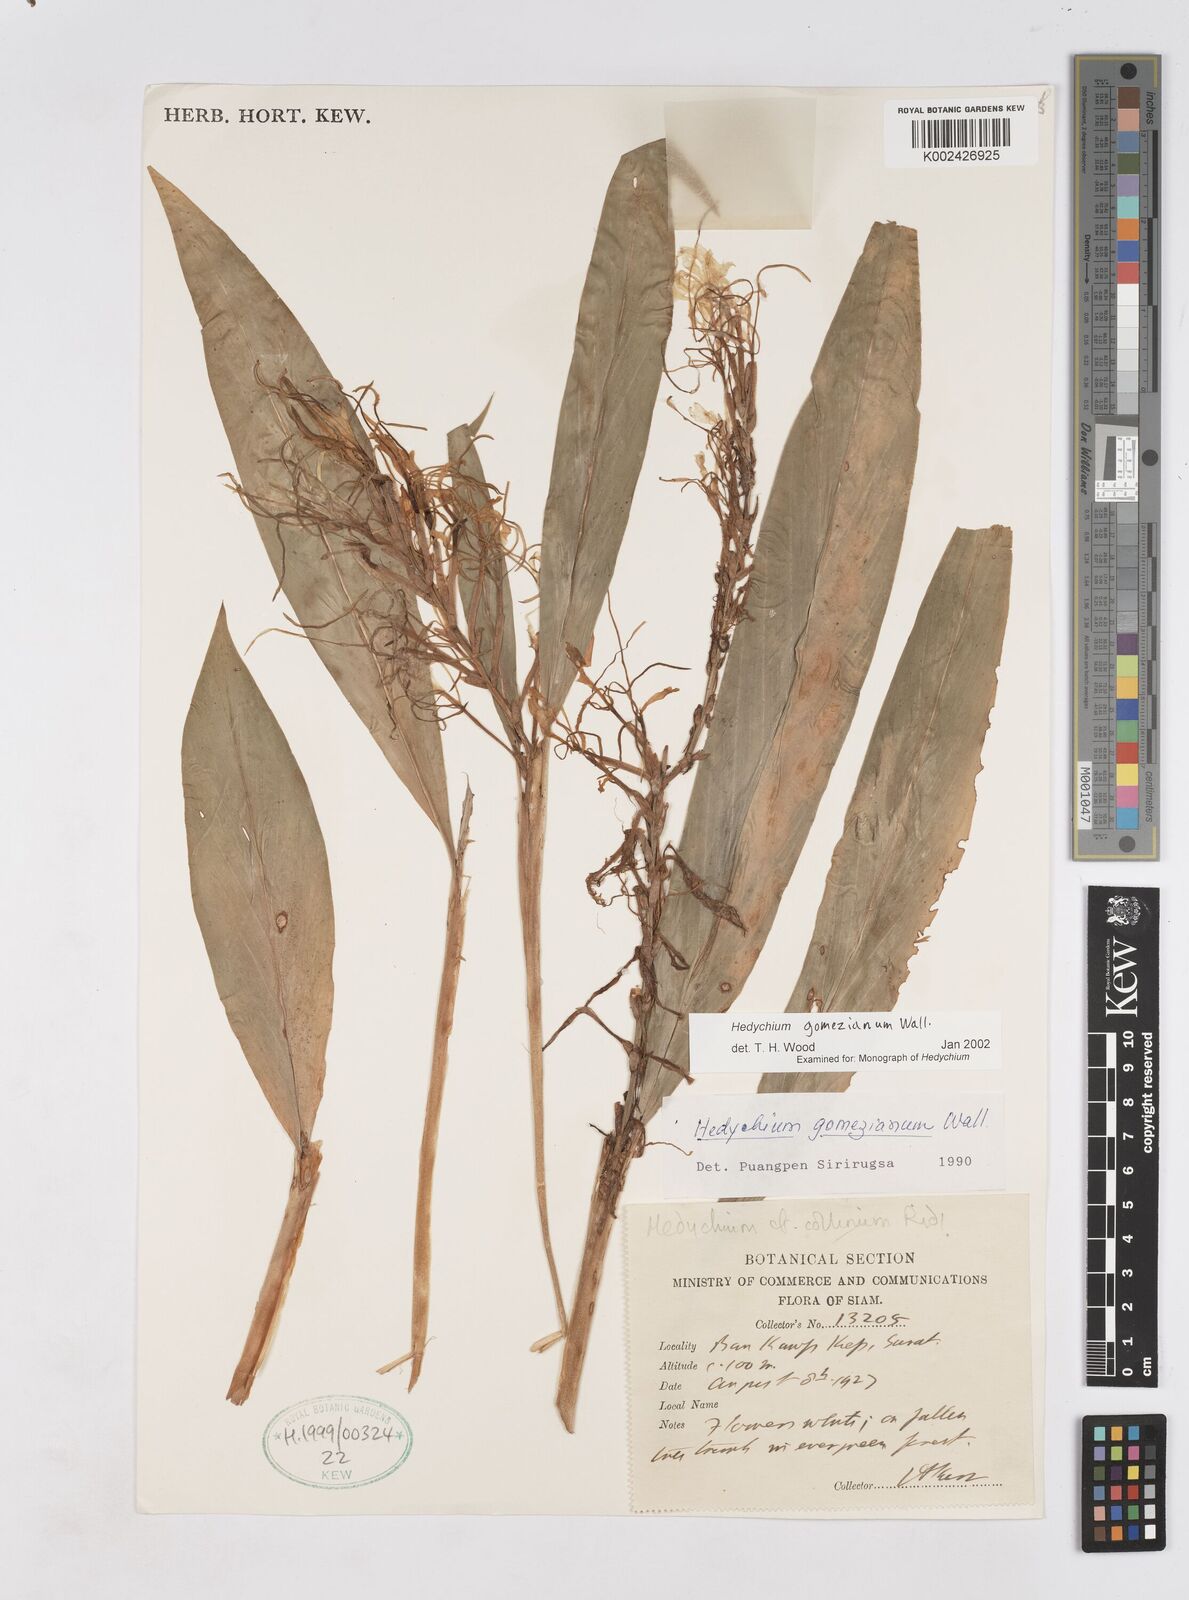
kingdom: Plantae
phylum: Tracheophyta
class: Liliopsida
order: Zingiberales
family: Zingiberaceae
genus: Hedychium
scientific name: Hedychium gomezianum
